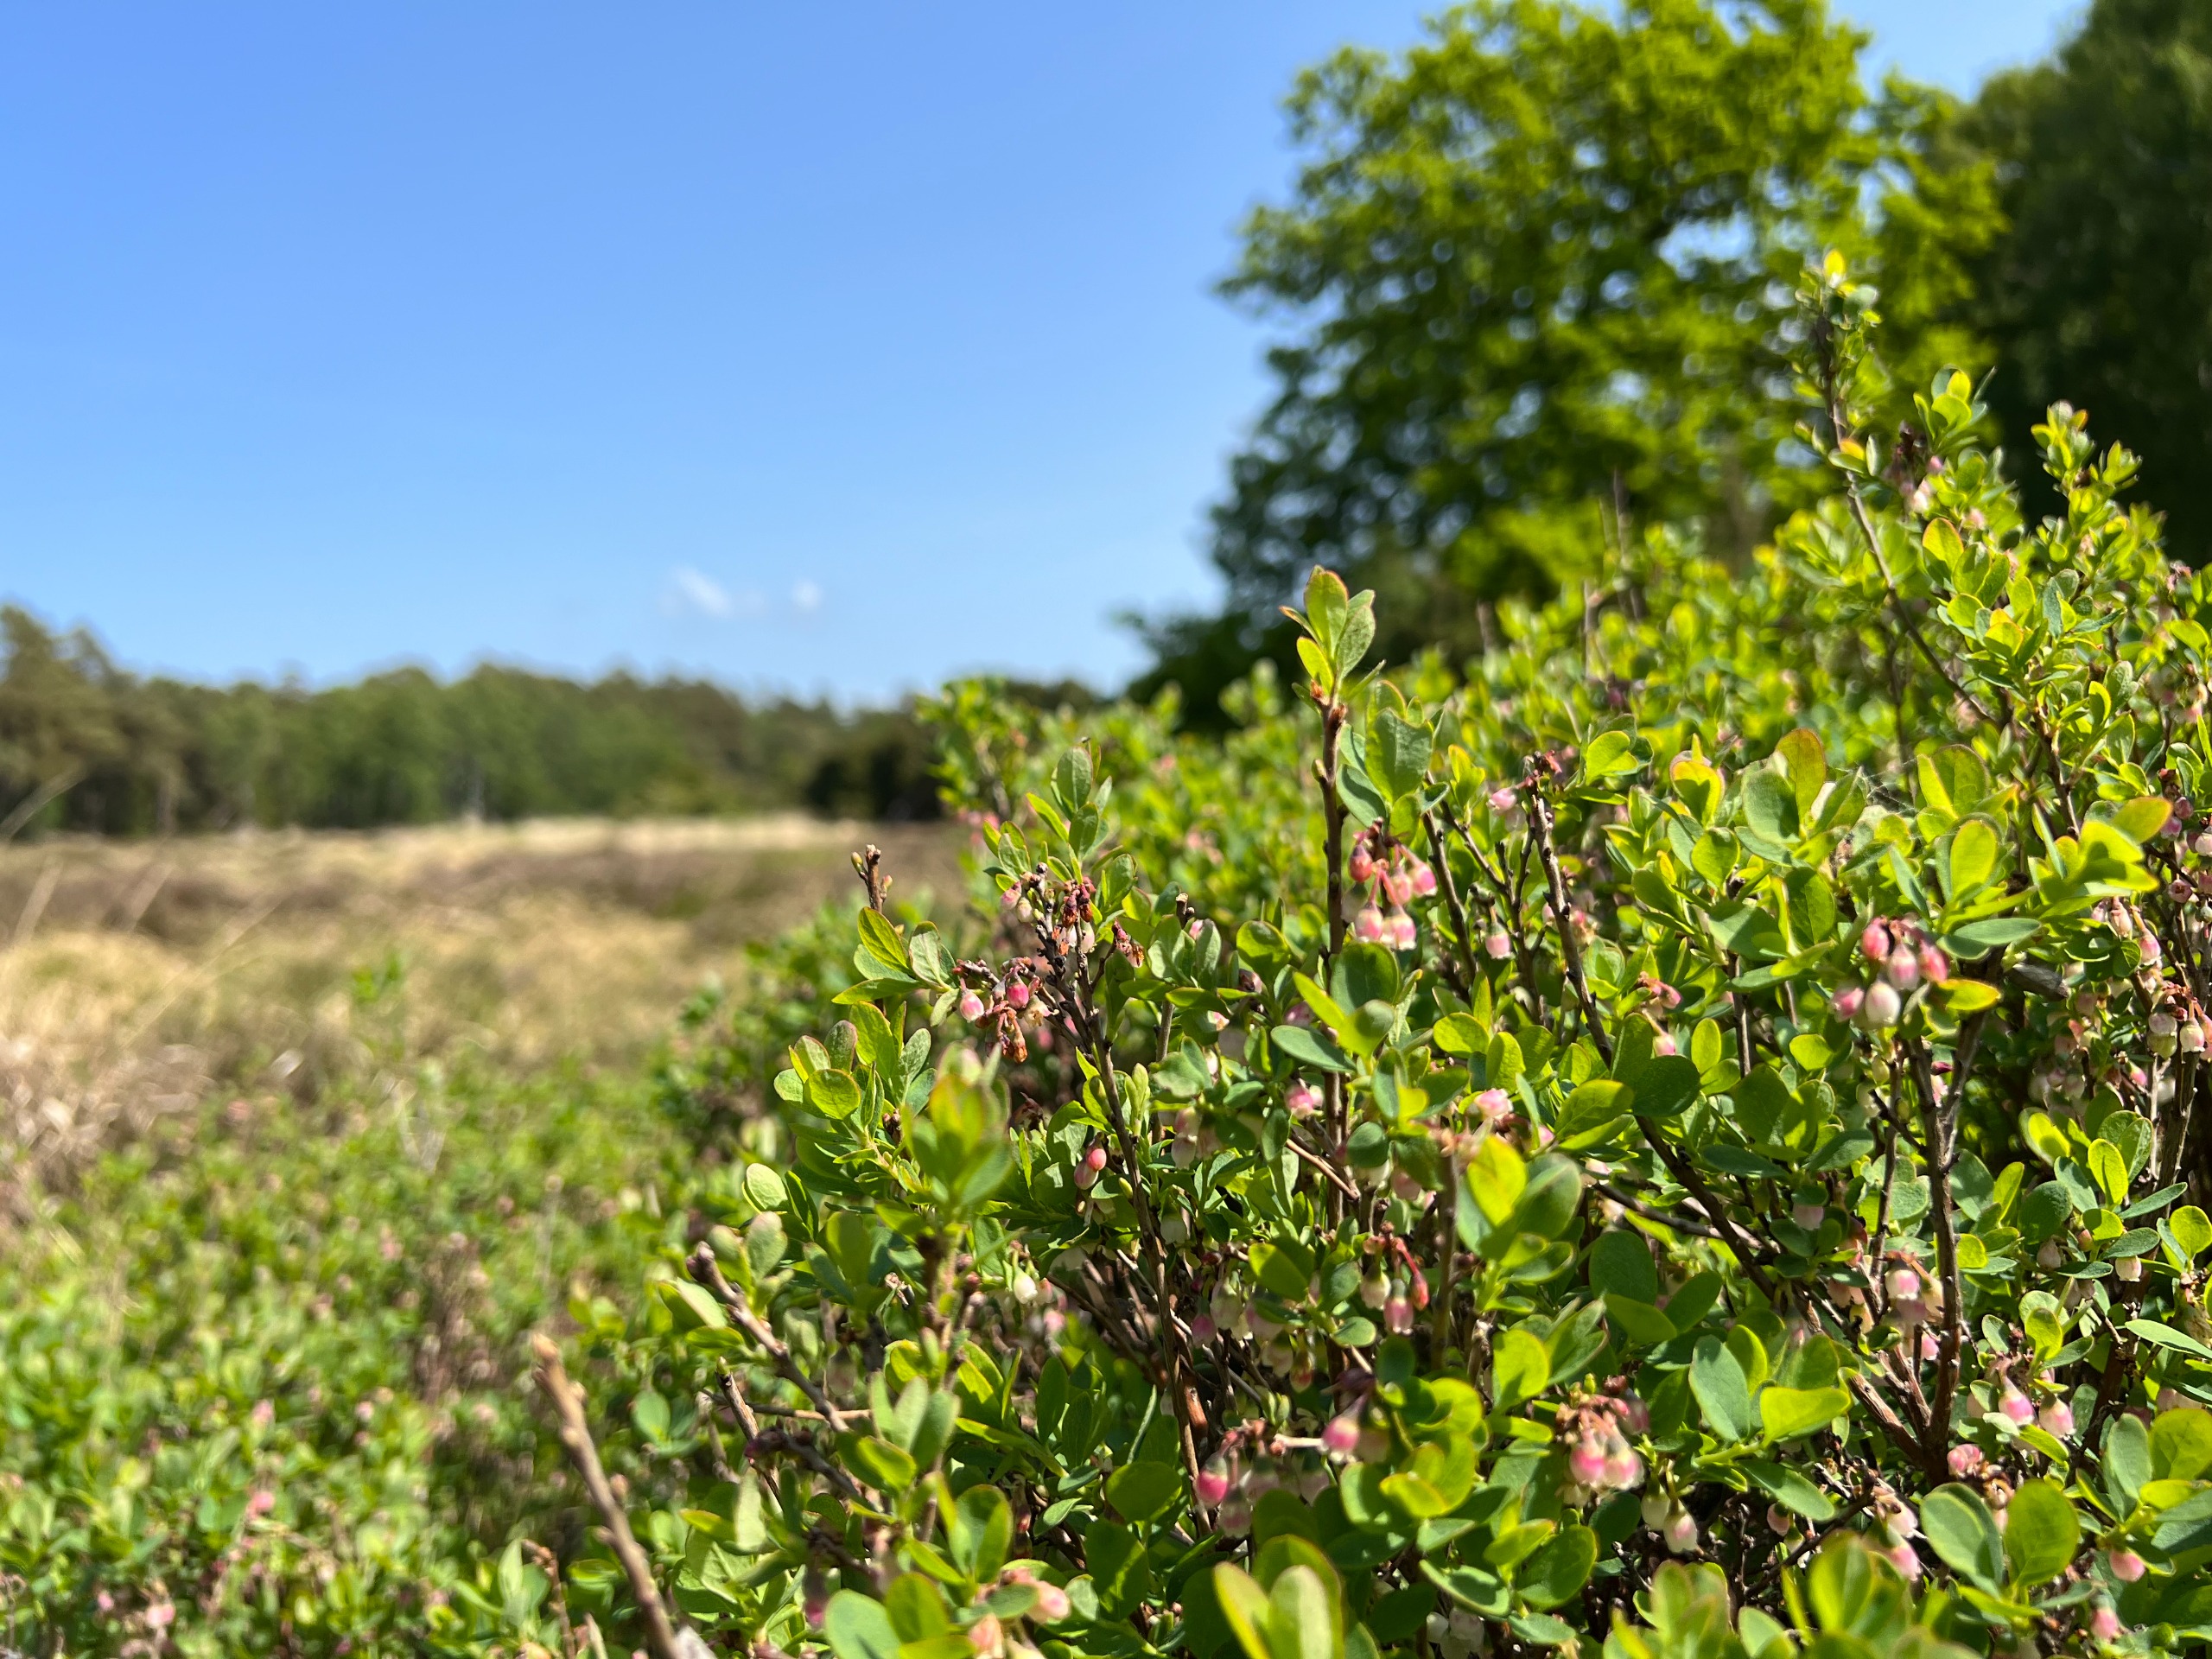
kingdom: Plantae
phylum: Tracheophyta
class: Magnoliopsida
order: Ericales
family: Ericaceae
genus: Vaccinium
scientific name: Vaccinium uliginosum
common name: Mose-bølle
